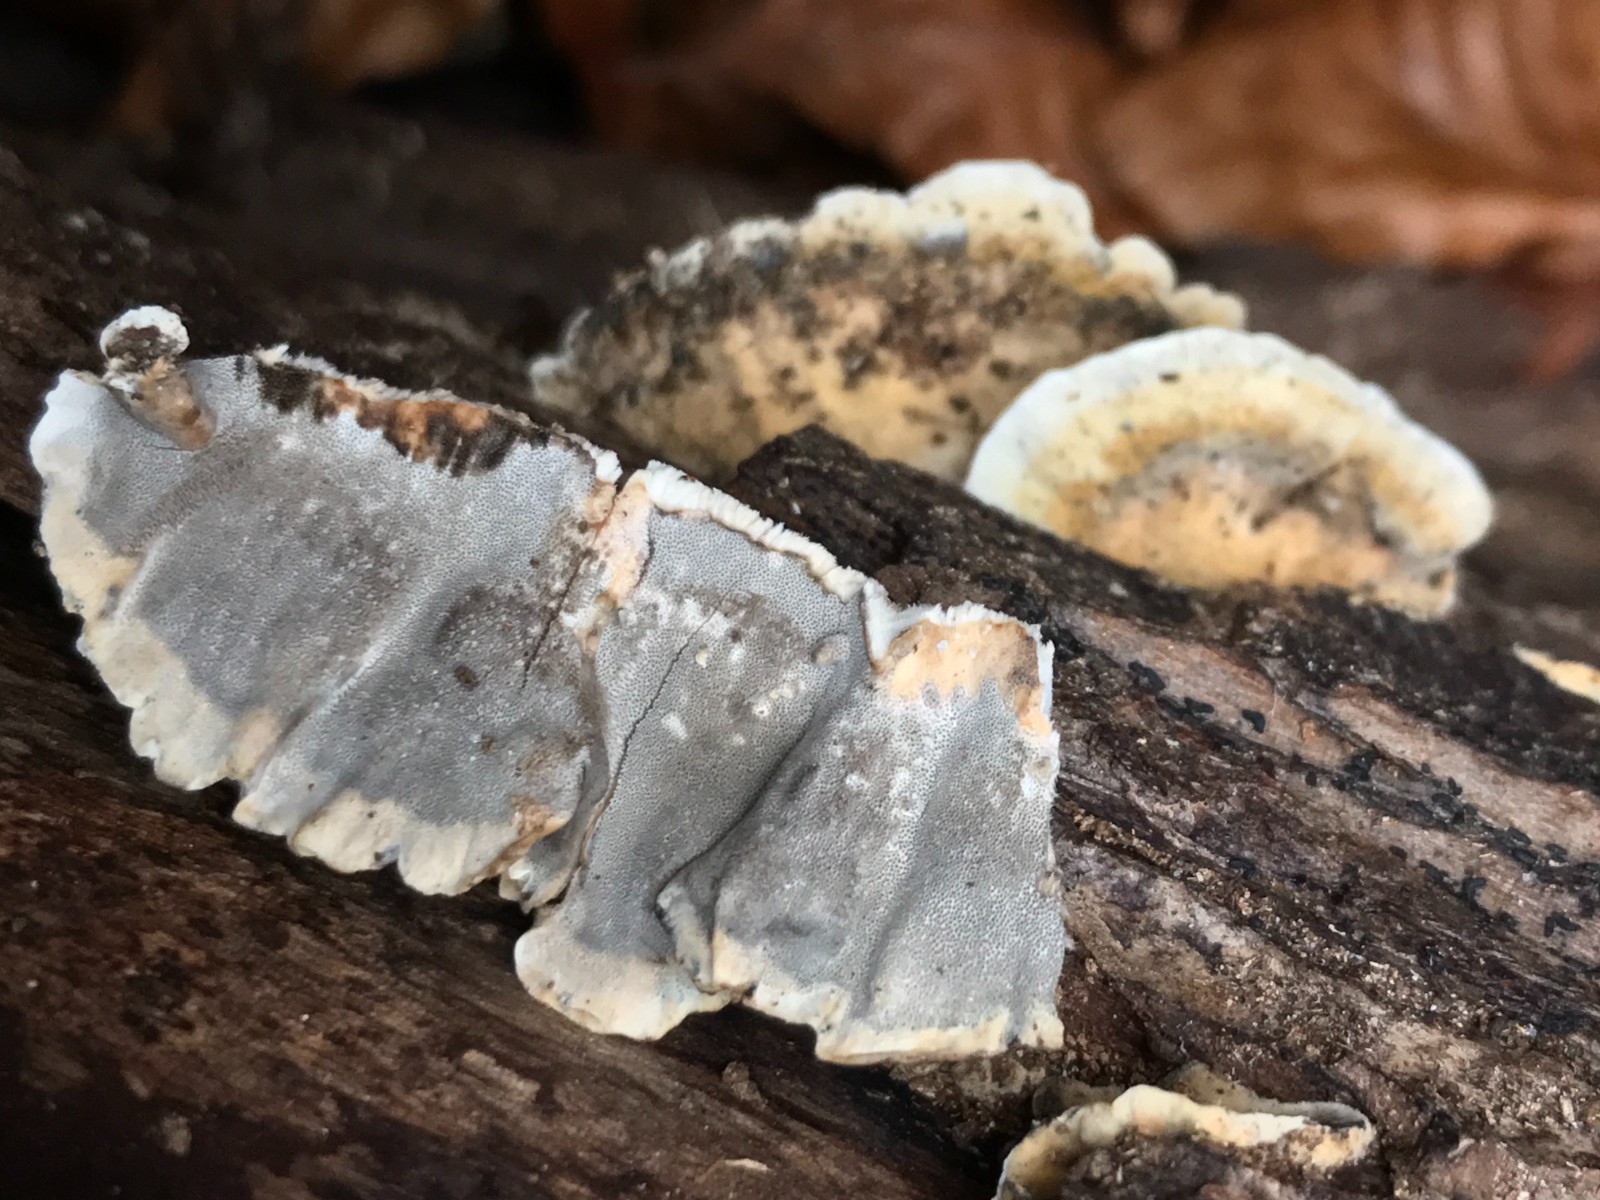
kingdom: Fungi
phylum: Basidiomycota
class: Agaricomycetes
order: Polyporales
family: Phanerochaetaceae
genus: Bjerkandera
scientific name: Bjerkandera adusta
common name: sveden sodporesvamp
